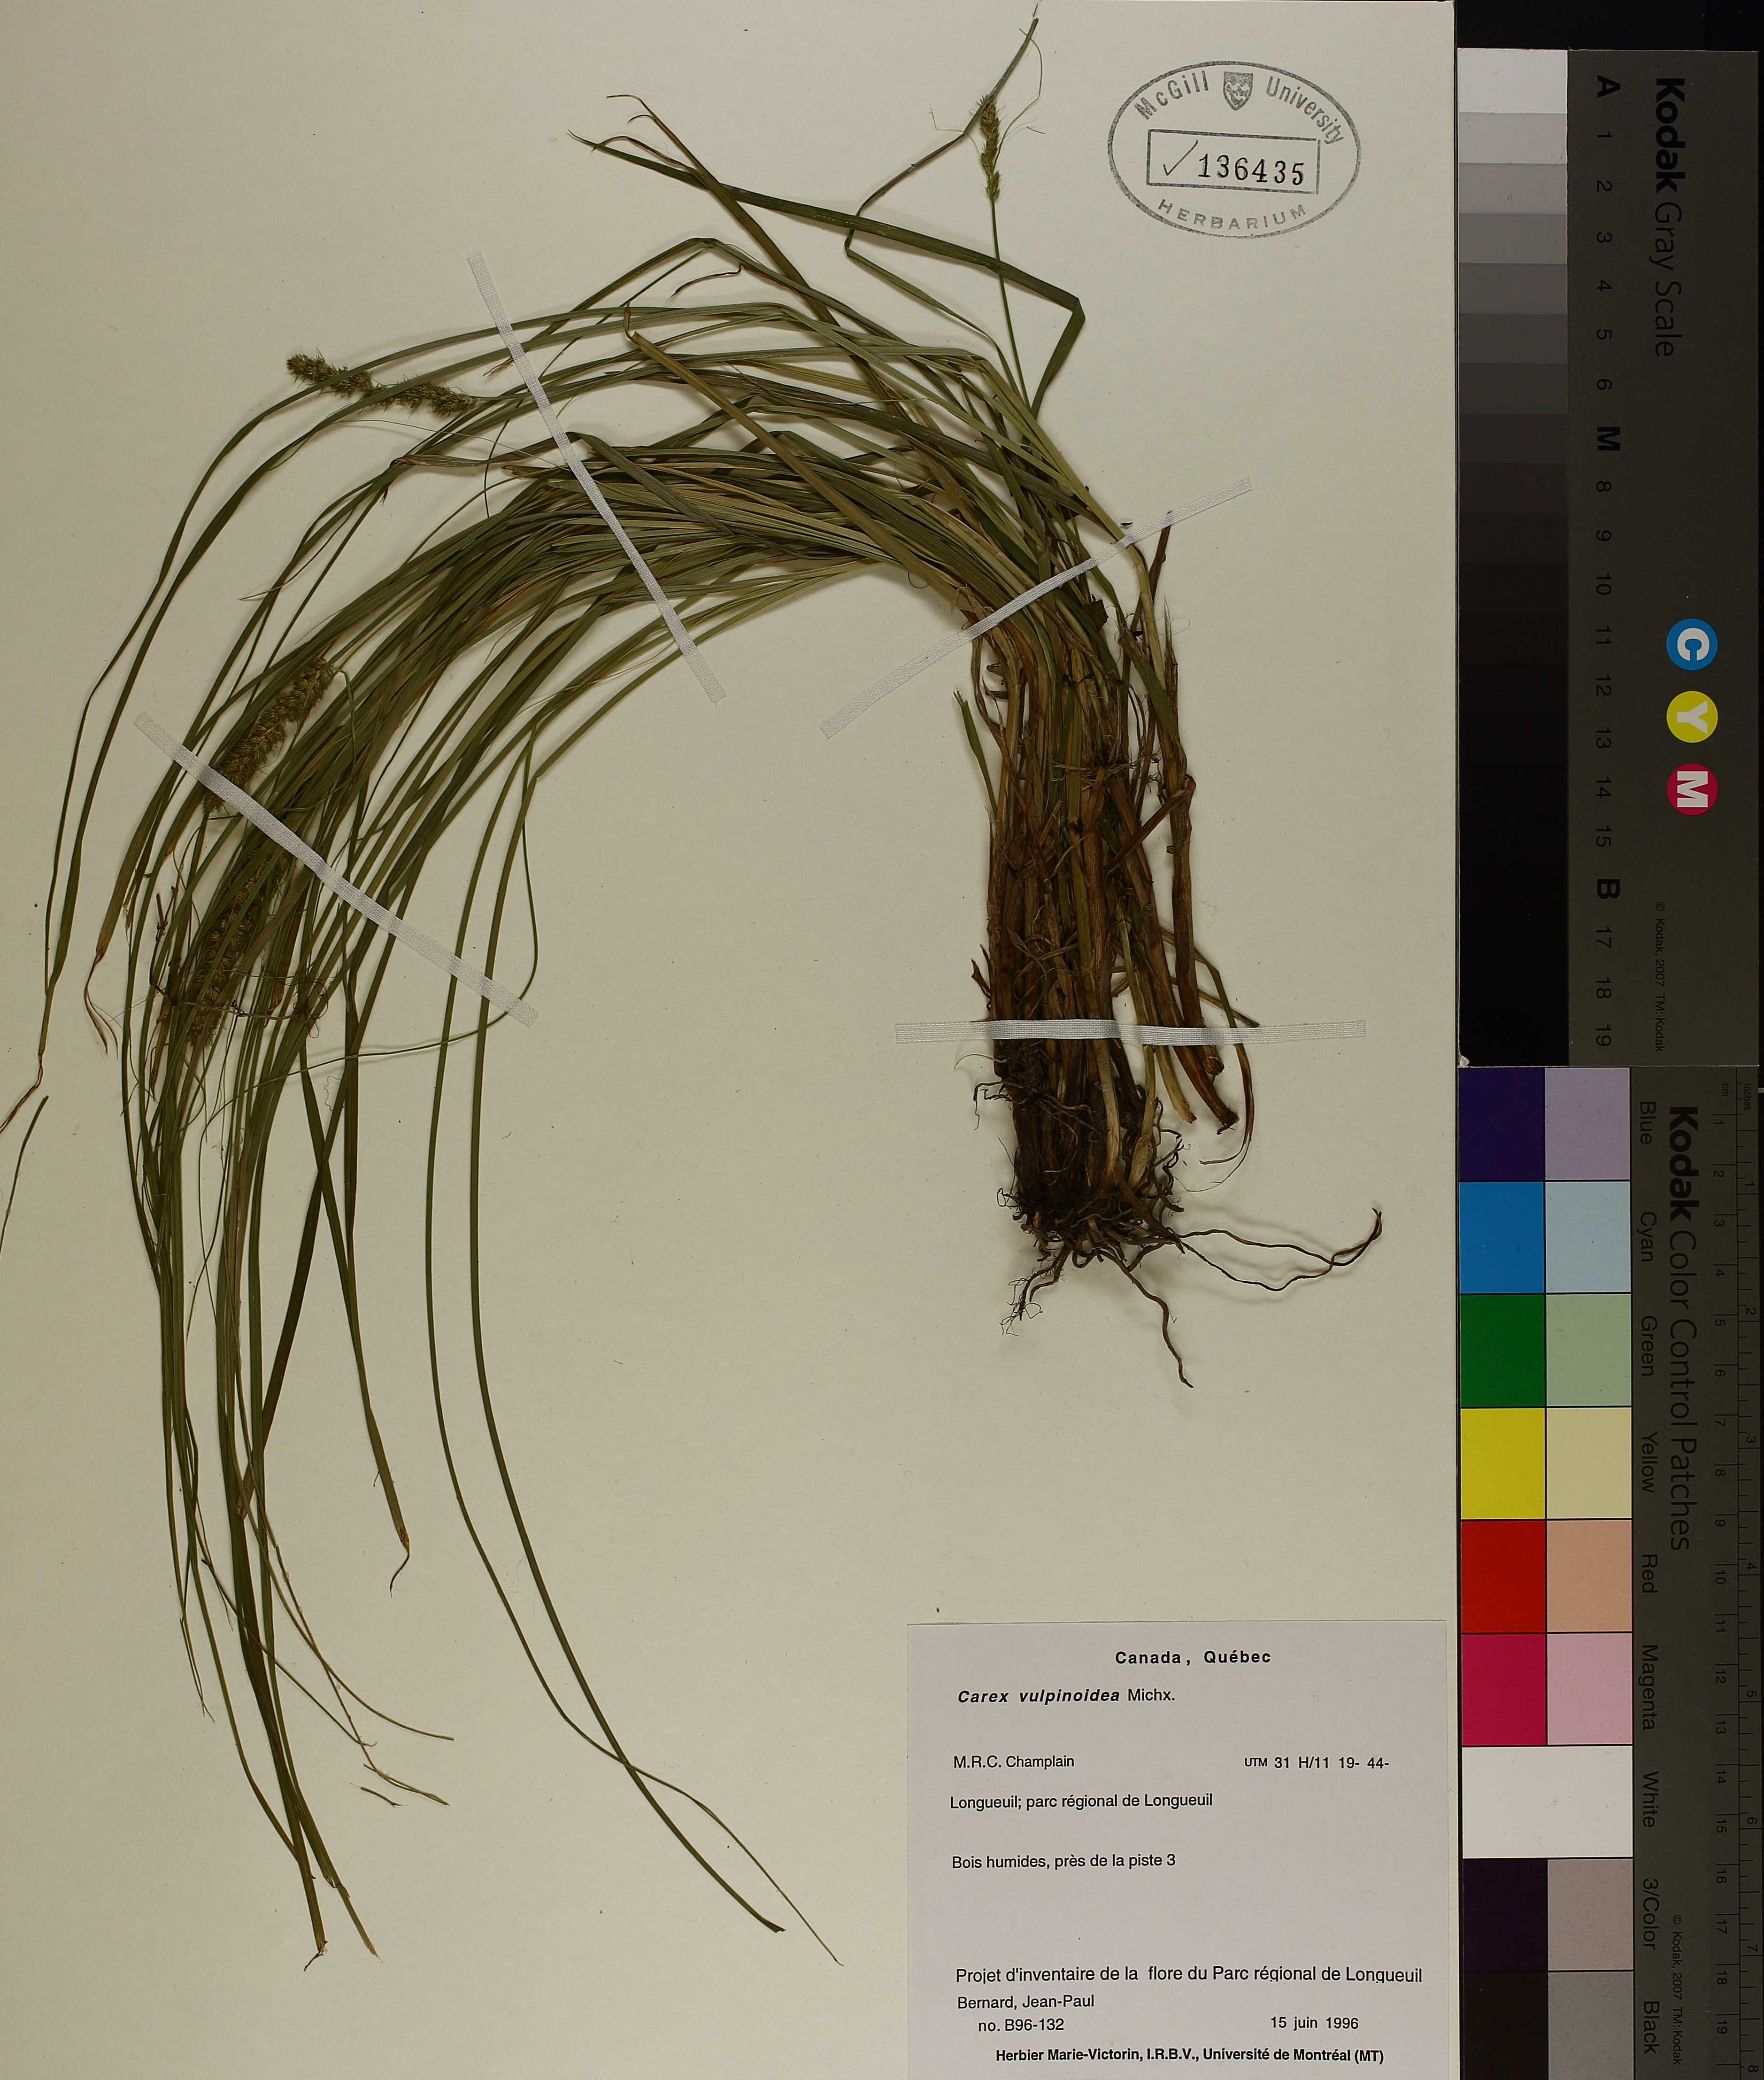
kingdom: Plantae
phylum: Tracheophyta
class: Liliopsida
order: Poales
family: Cyperaceae
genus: Carex
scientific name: Carex vulpinoidea
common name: American fox-sedge
